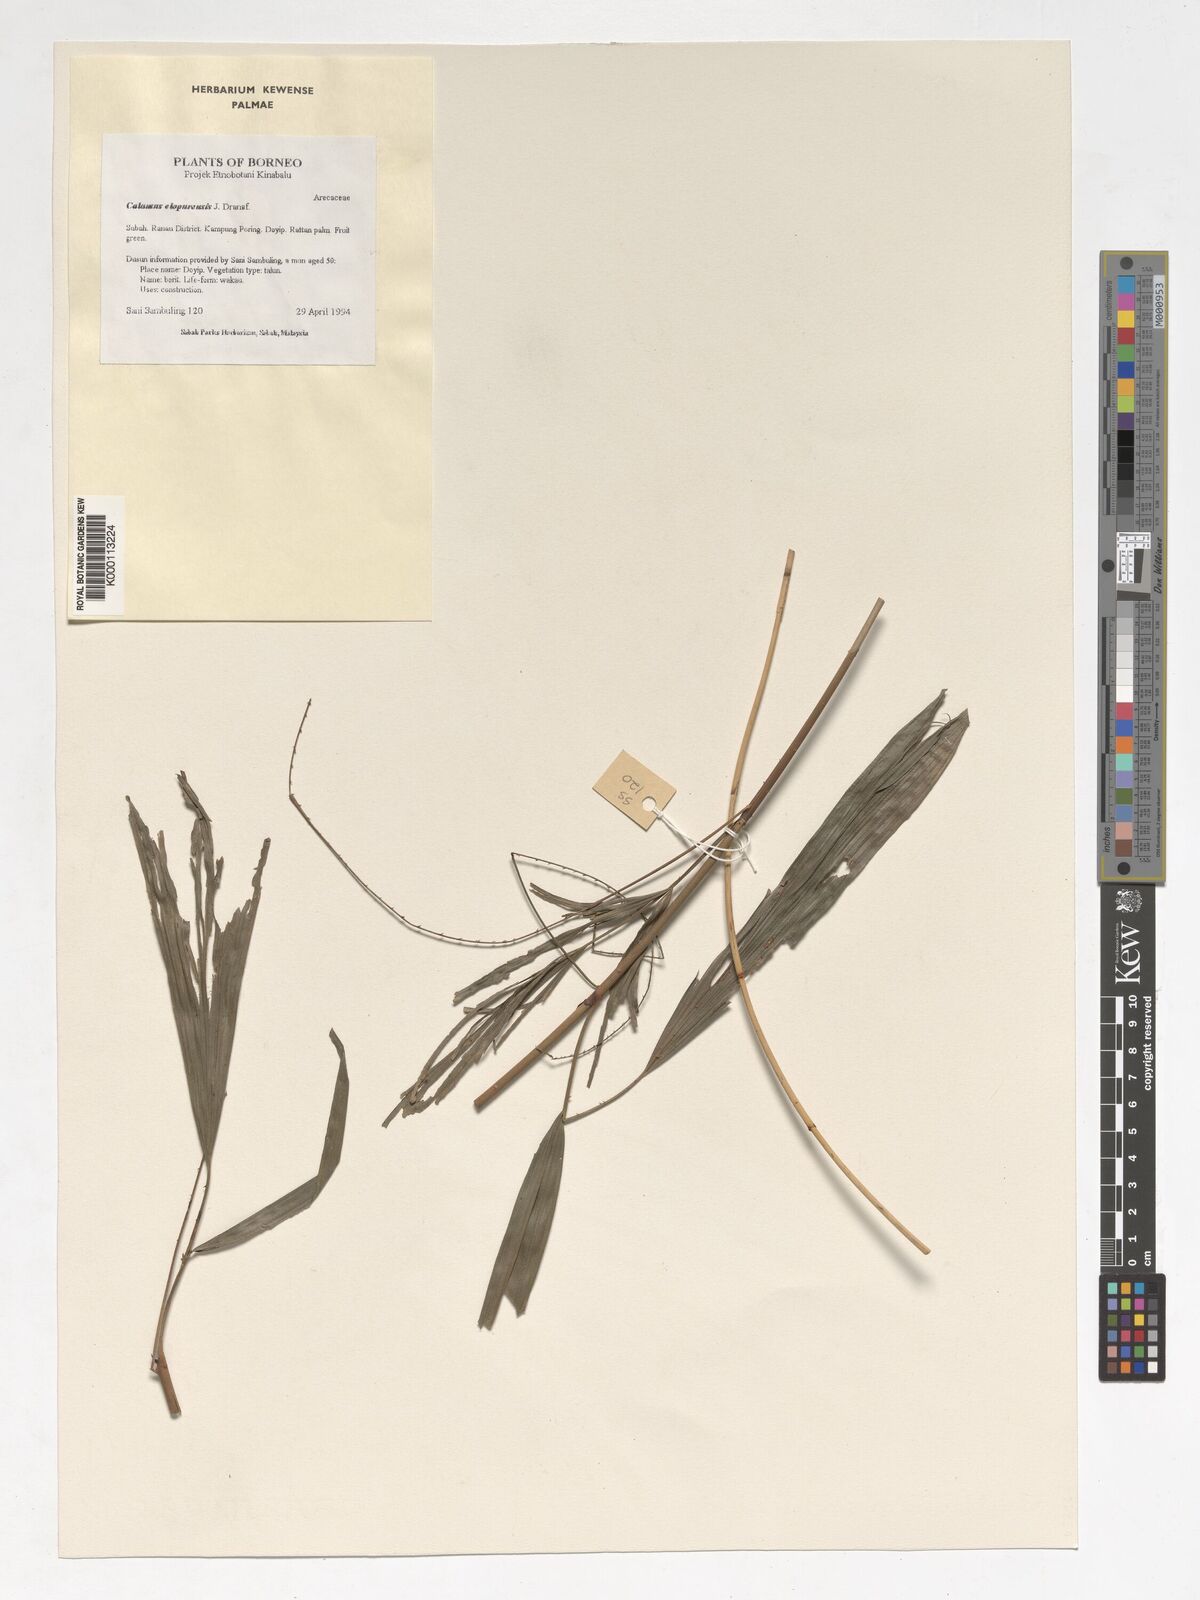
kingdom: Plantae
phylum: Tracheophyta
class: Liliopsida
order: Arecales
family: Arecaceae
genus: Calamus
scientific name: Calamus javensis
